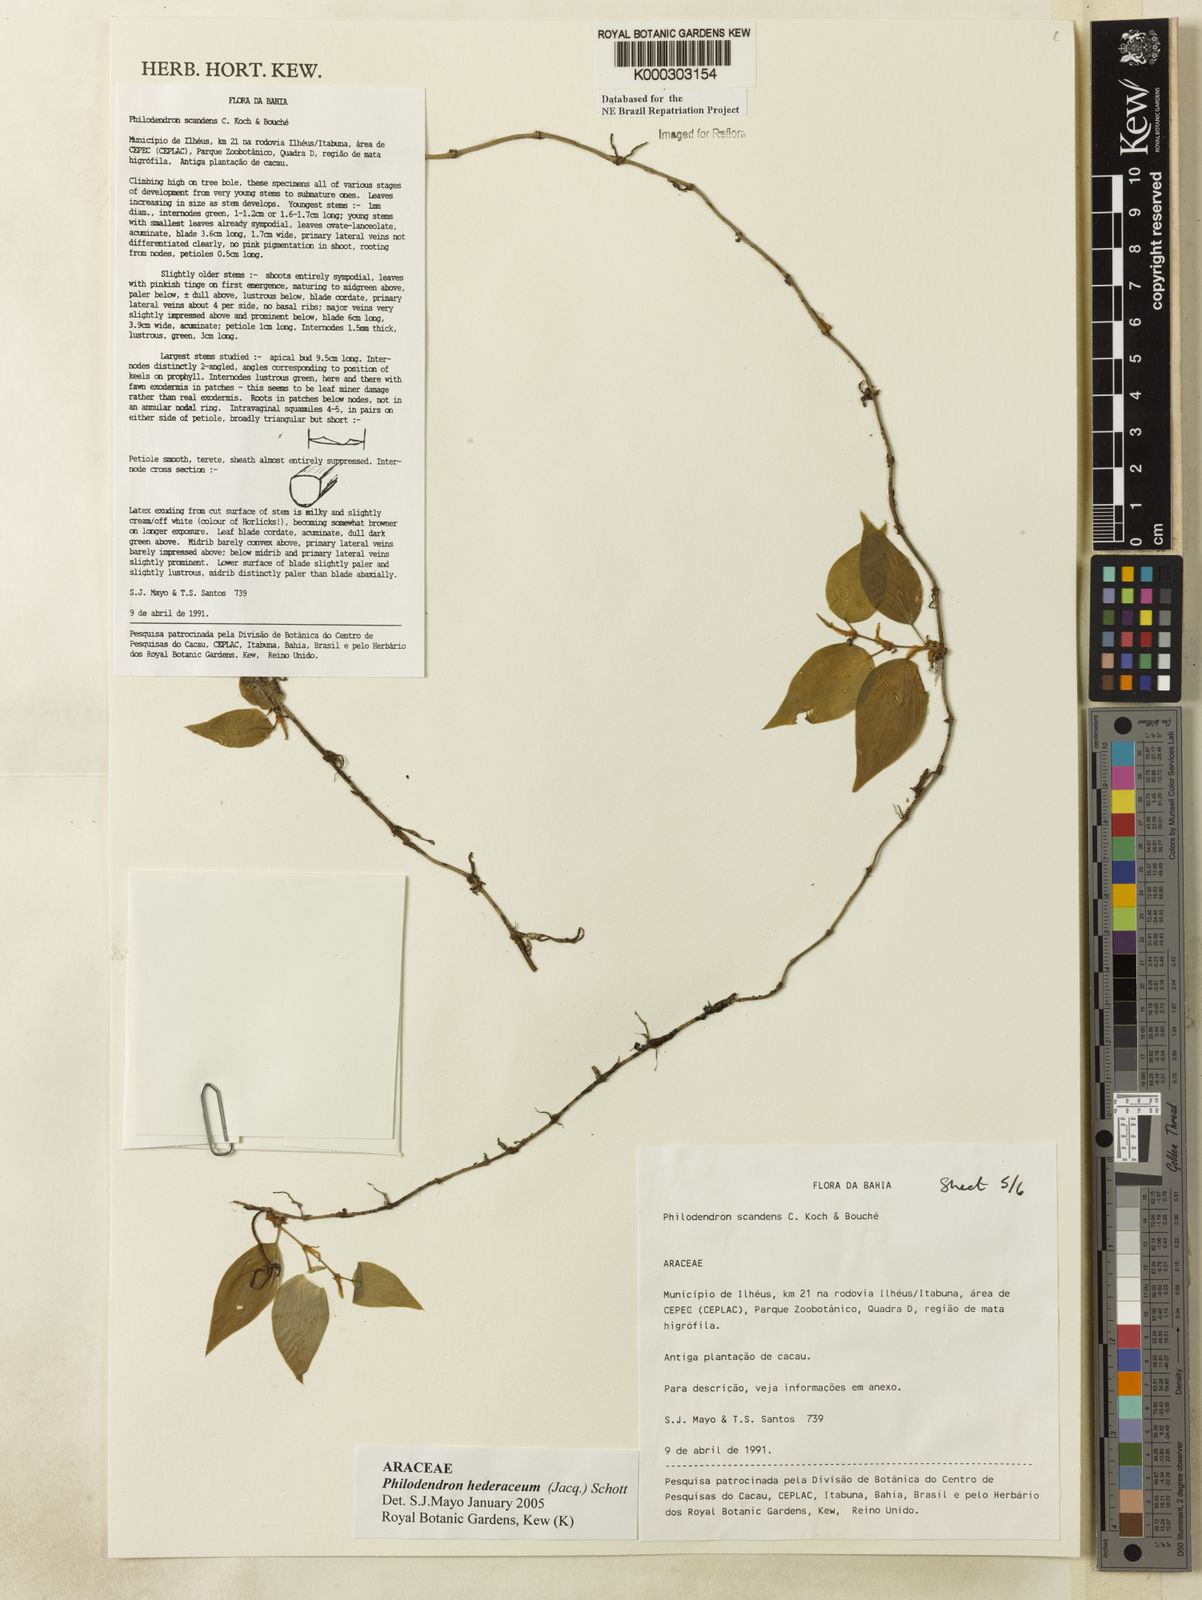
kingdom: Plantae
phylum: Tracheophyta
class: Liliopsida
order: Alismatales
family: Araceae
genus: Philodendron
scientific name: Philodendron hederaceum
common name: Vilevine
